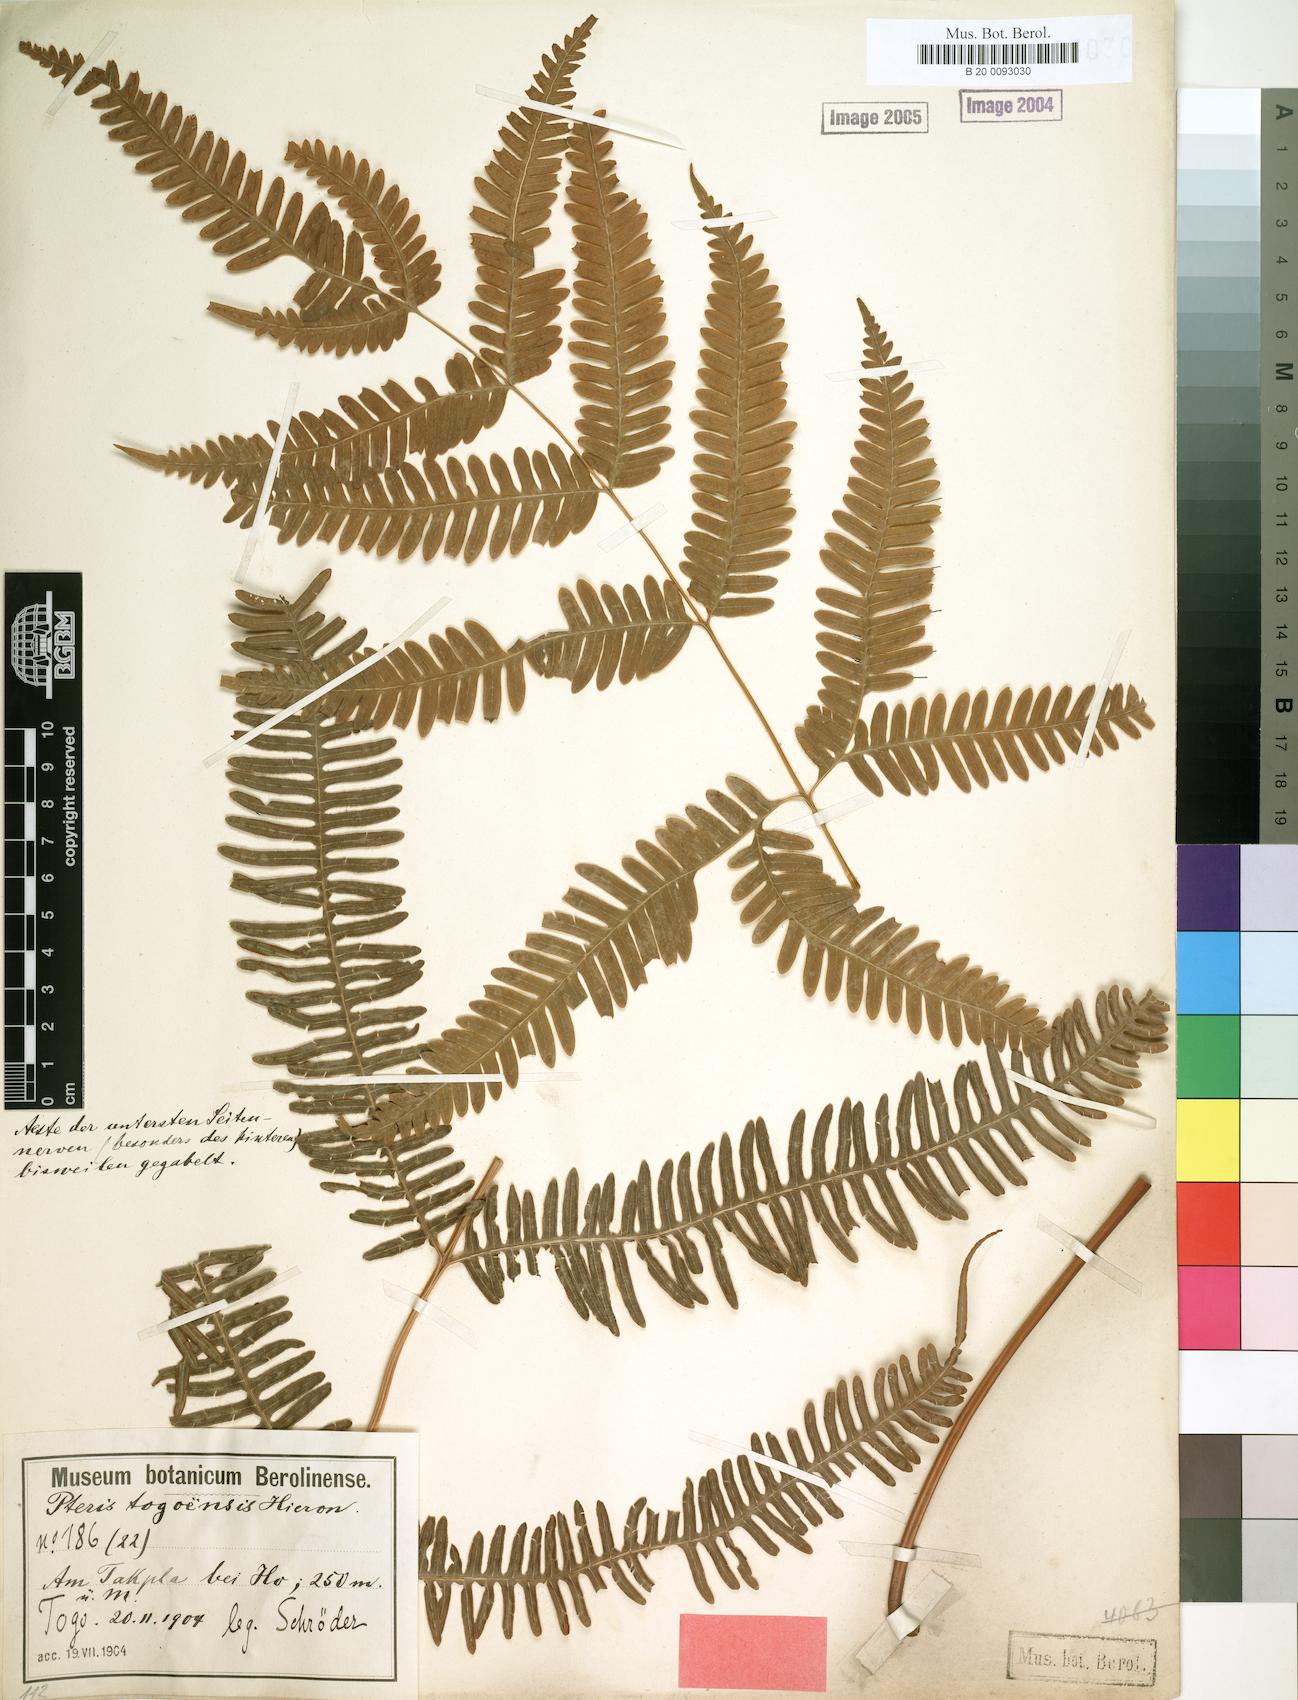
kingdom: Plantae
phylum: Tracheophyta
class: Polypodiopsida
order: Polypodiales
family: Pteridaceae
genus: Pteris
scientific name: Pteris togoensis
